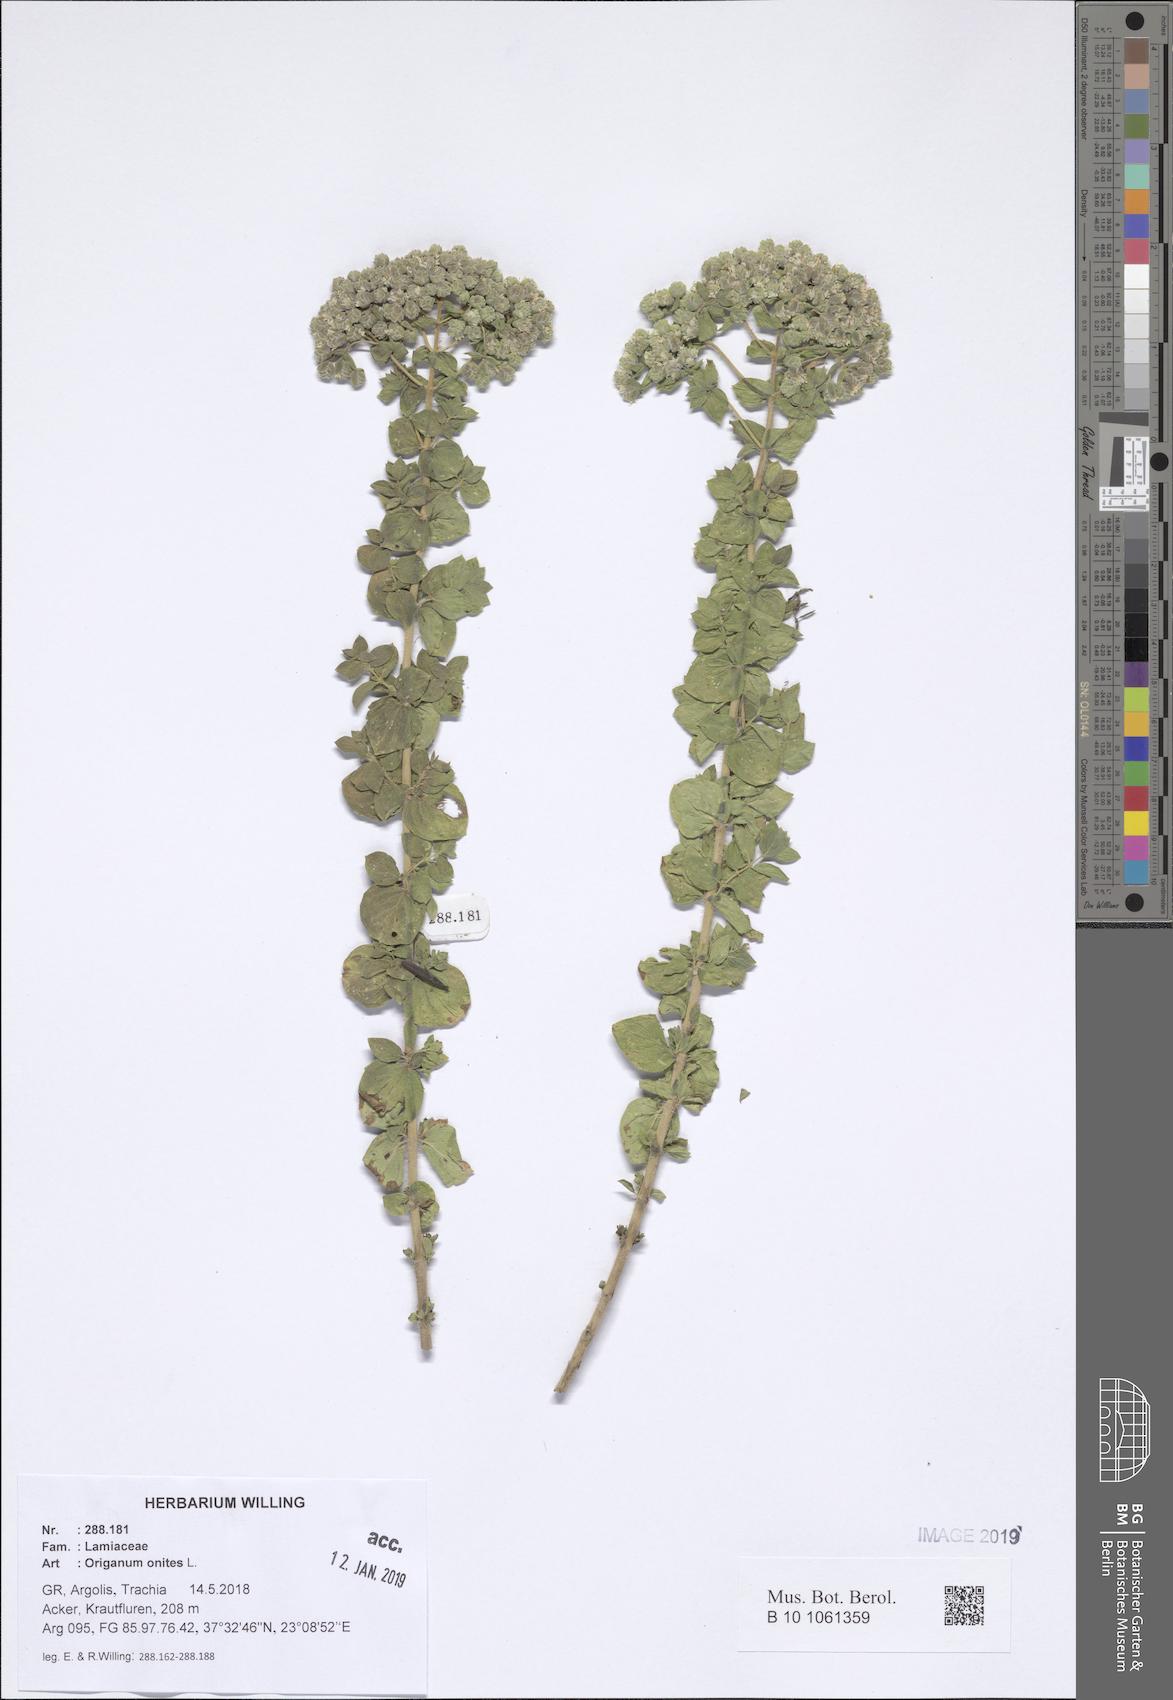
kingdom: Plantae
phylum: Tracheophyta
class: Magnoliopsida
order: Lamiales
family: Lamiaceae
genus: Origanum
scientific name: Origanum onites
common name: Turkish oregano
